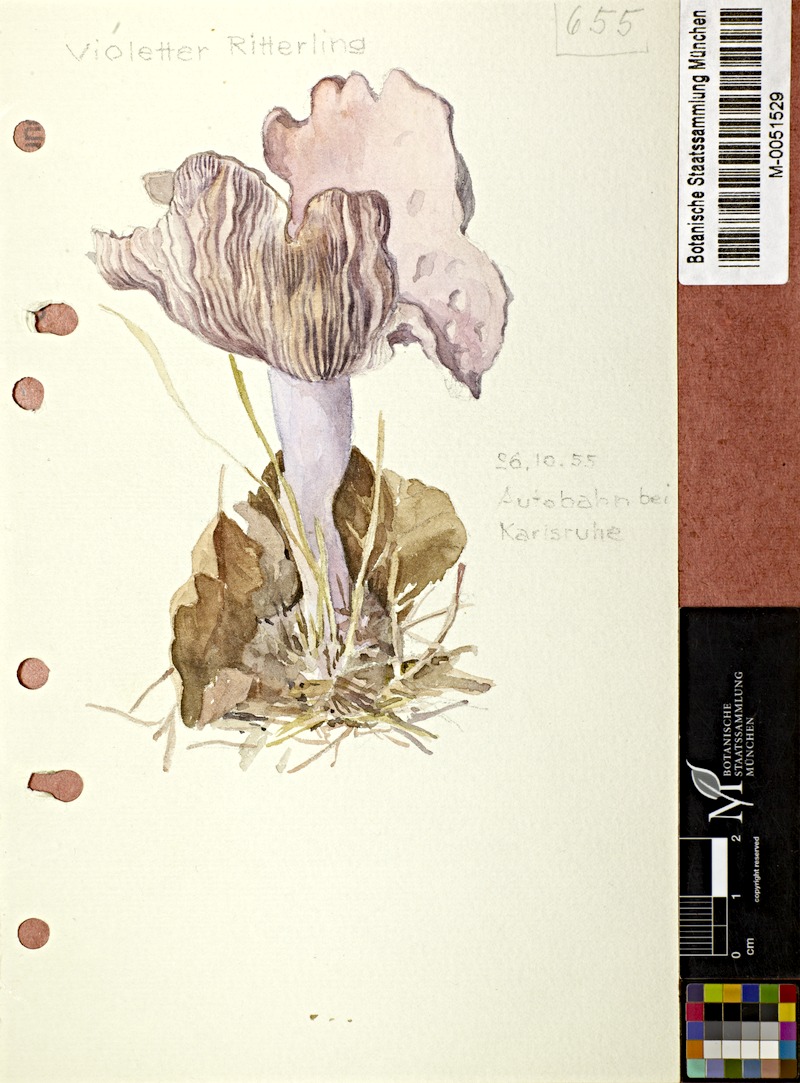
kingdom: Fungi
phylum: Basidiomycota
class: Agaricomycetes
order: Agaricales
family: Tricholomataceae
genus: Lepista
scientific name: Lepista nuda
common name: Wood blewit
